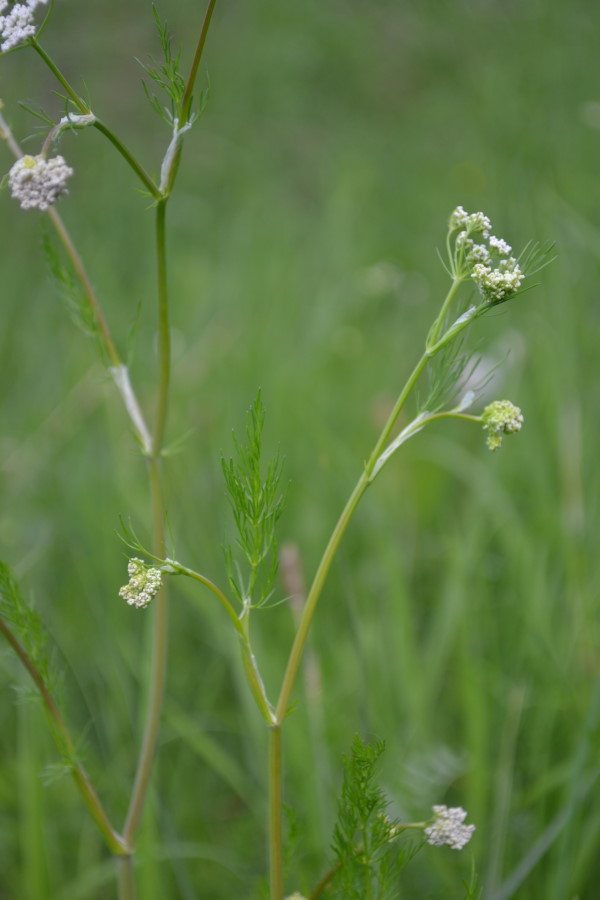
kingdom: Plantae
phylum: Tracheophyta
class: Magnoliopsida
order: Apiales
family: Apiaceae
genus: Carum
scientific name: Carum carvi
